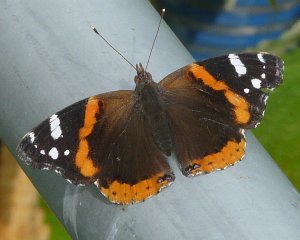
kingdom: Animalia
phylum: Arthropoda
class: Insecta
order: Lepidoptera
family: Nymphalidae
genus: Vanessa
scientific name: Vanessa atalanta
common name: Red Admiral
